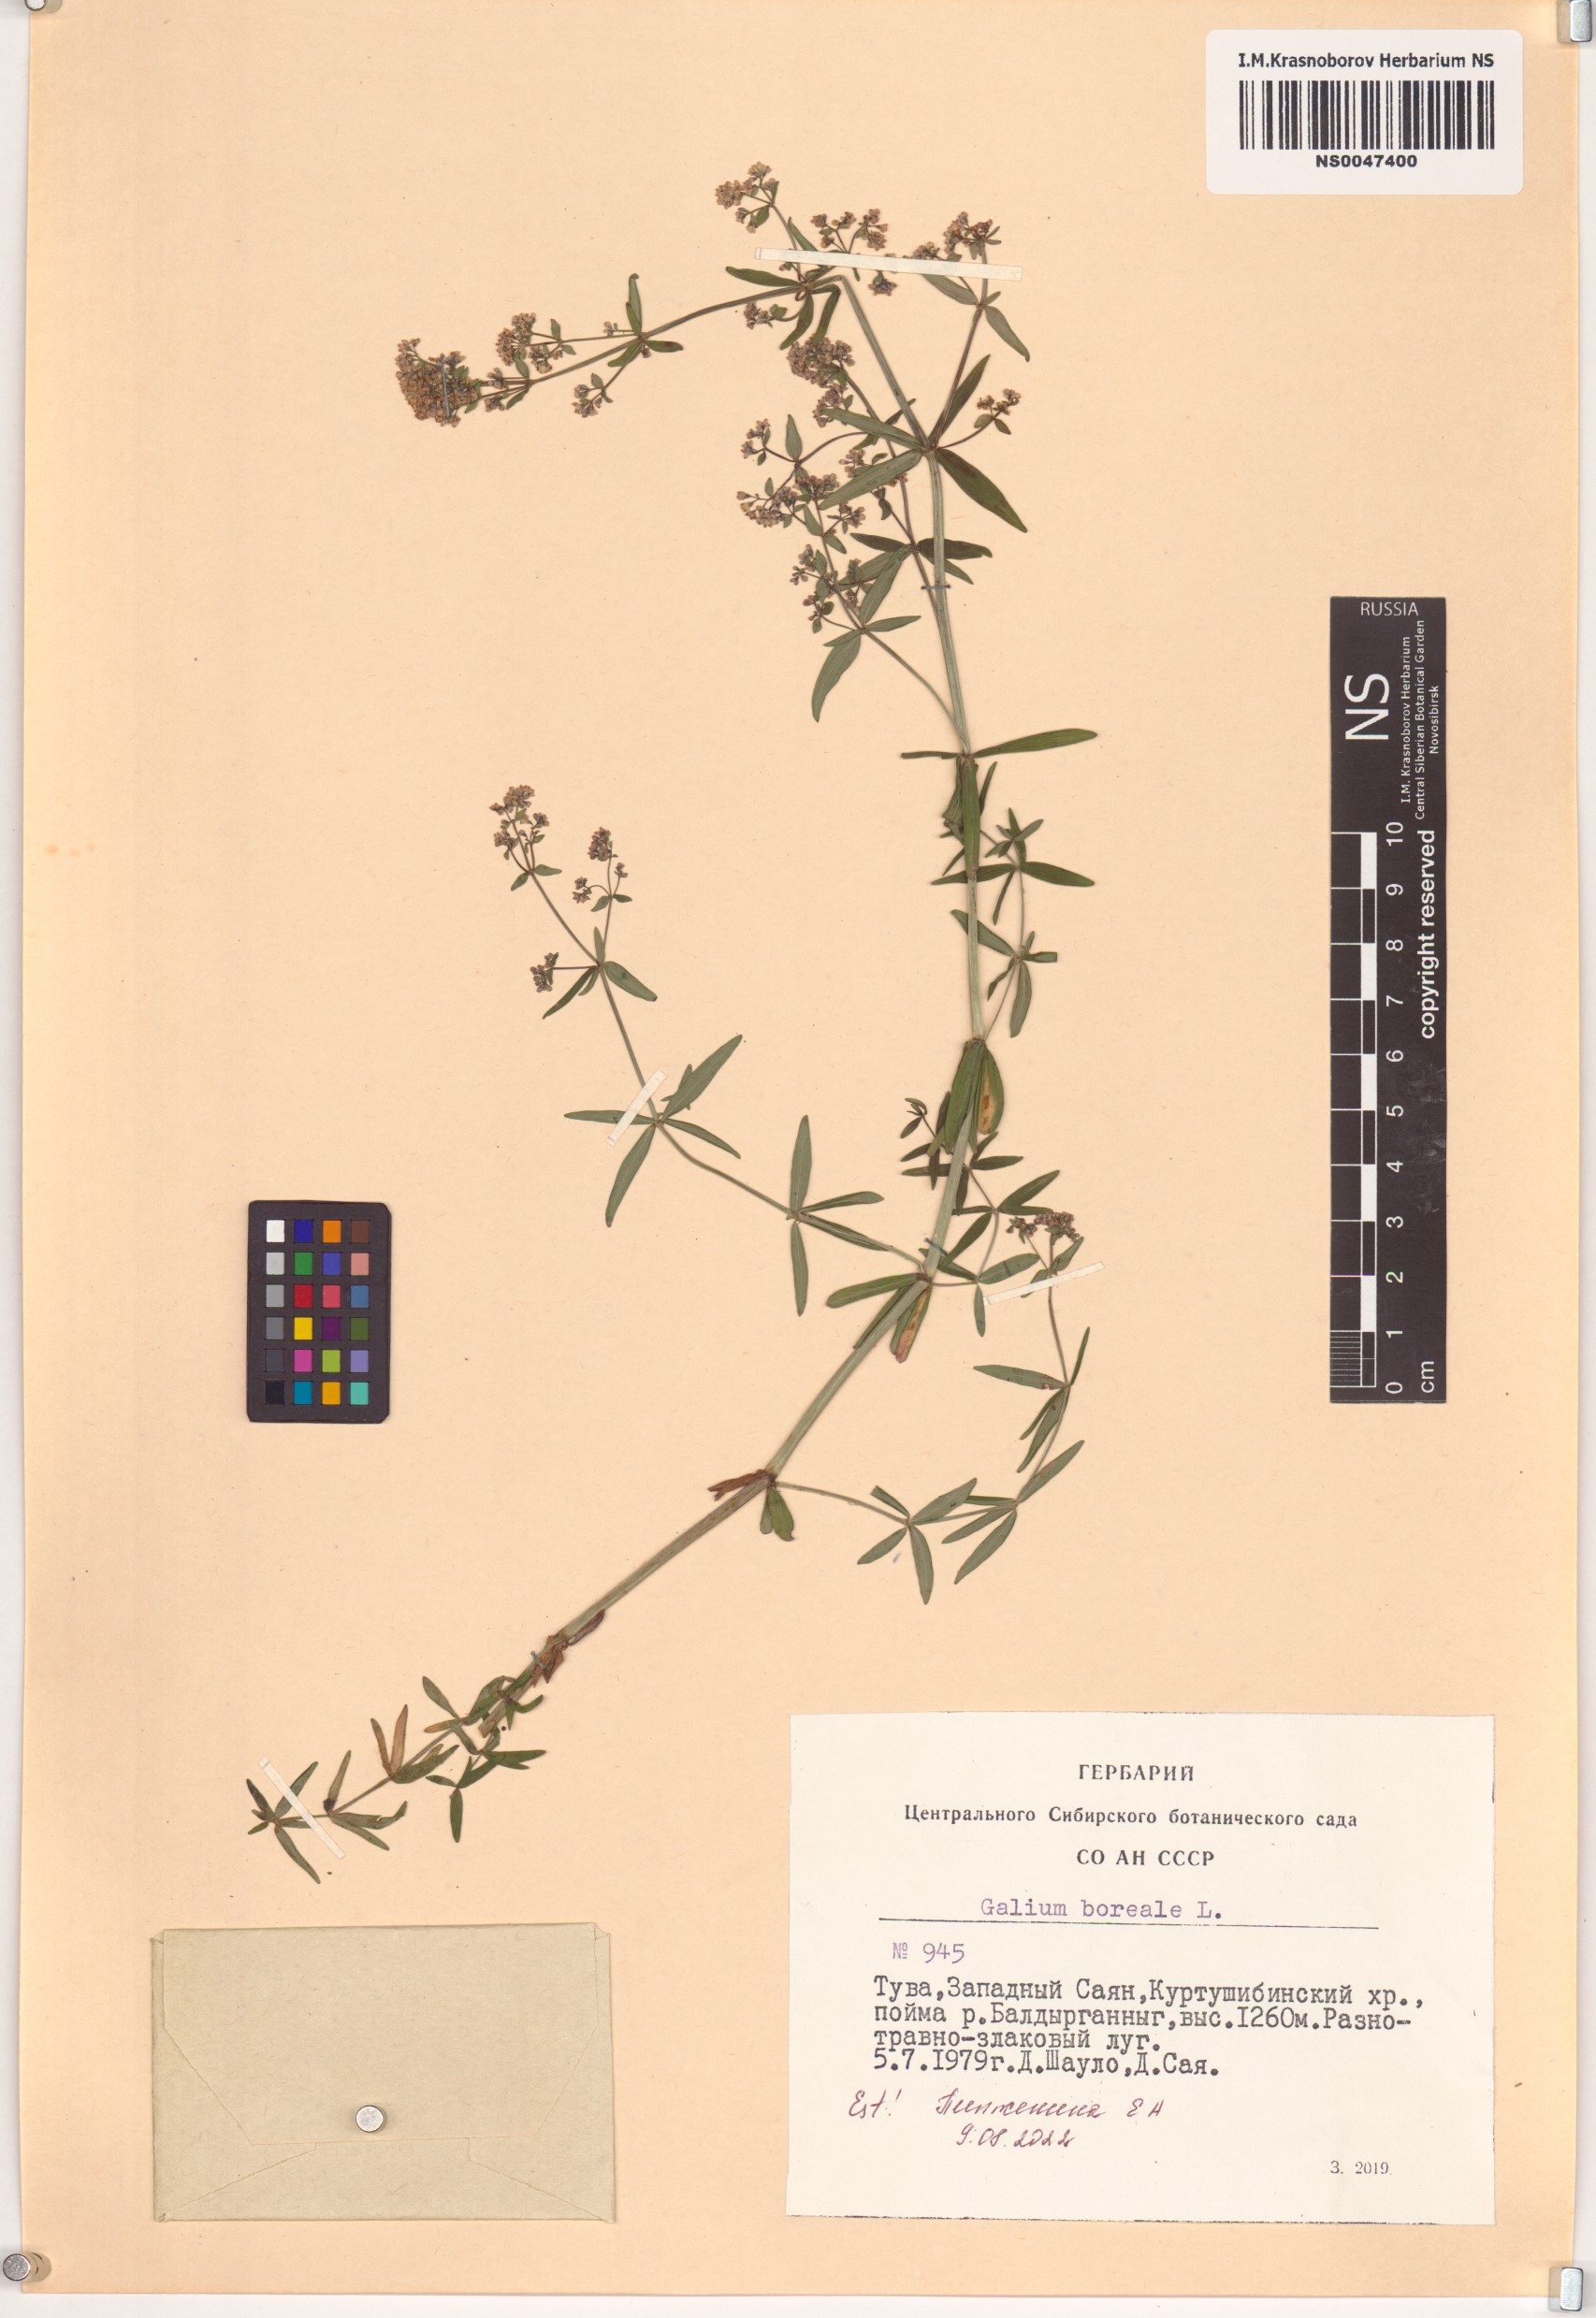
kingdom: Plantae
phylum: Tracheophyta
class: Magnoliopsida
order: Gentianales
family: Rubiaceae
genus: Galium
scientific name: Galium boreale
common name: Northern bedstraw
